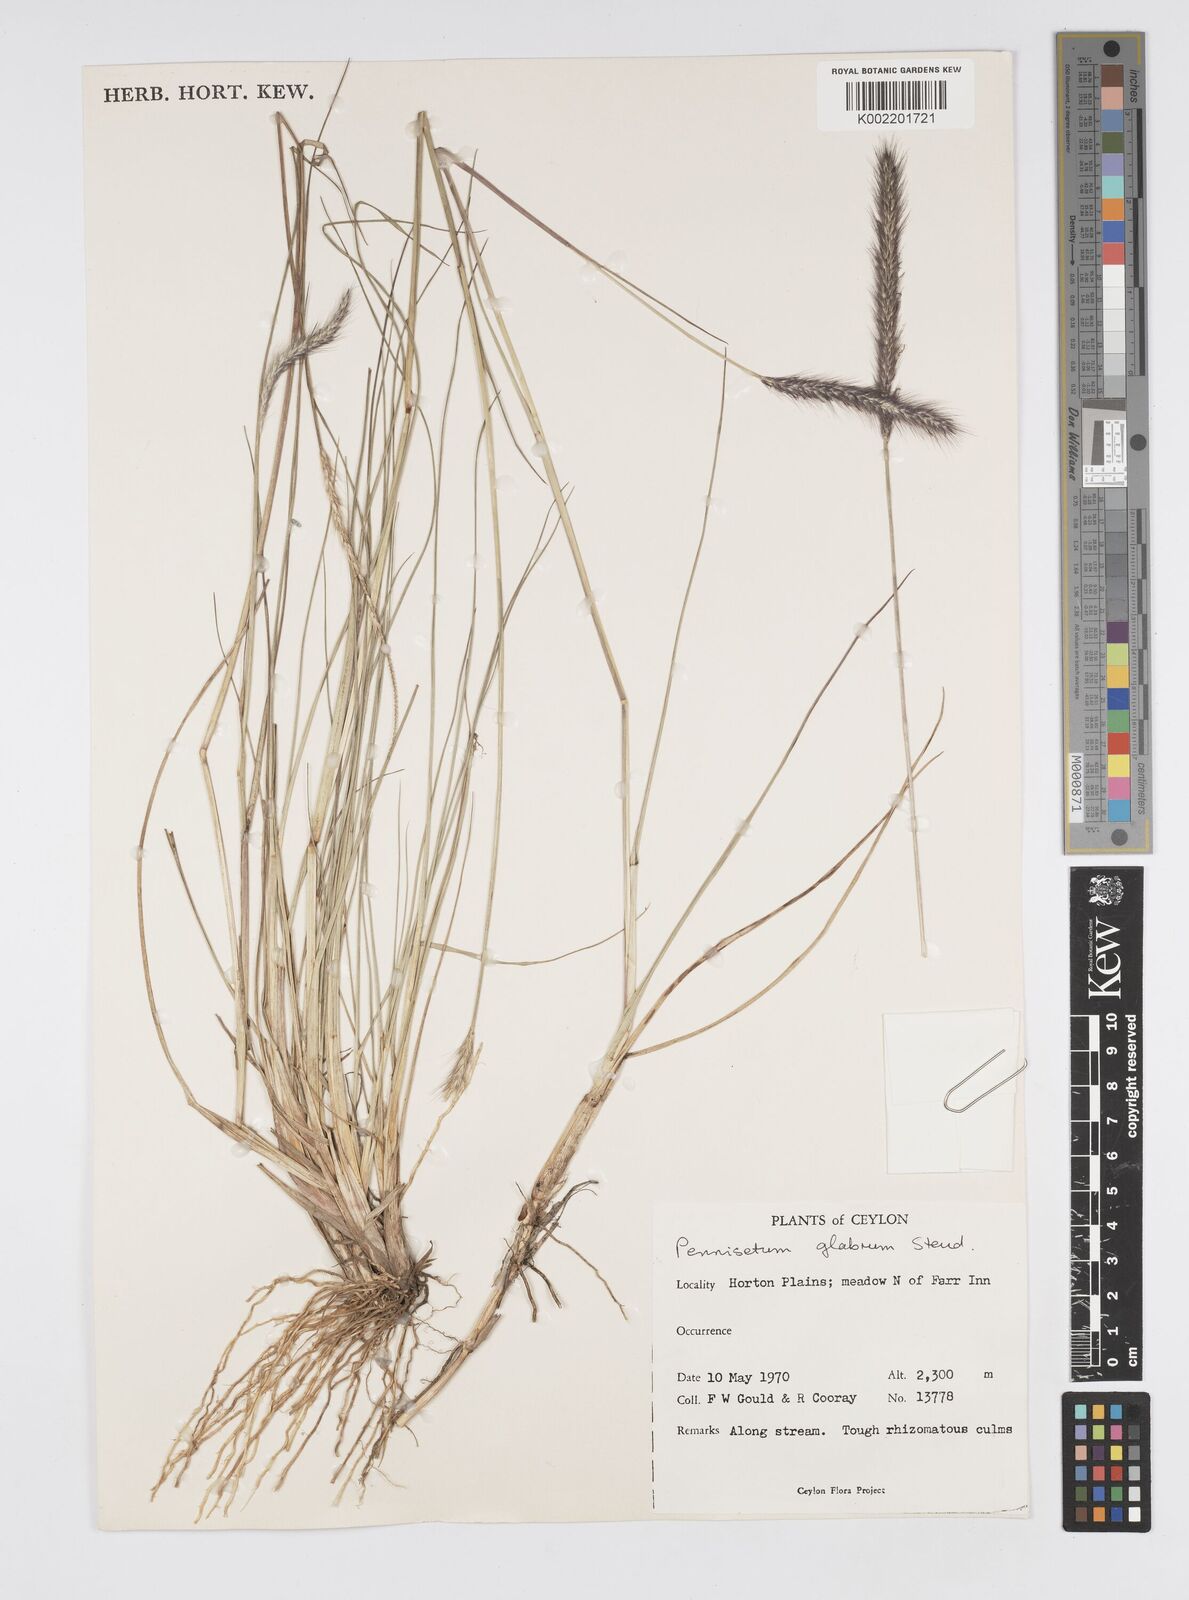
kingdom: Plantae
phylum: Tracheophyta
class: Liliopsida
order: Poales
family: Poaceae
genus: Cenchrus
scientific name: Cenchrus geniculatus
